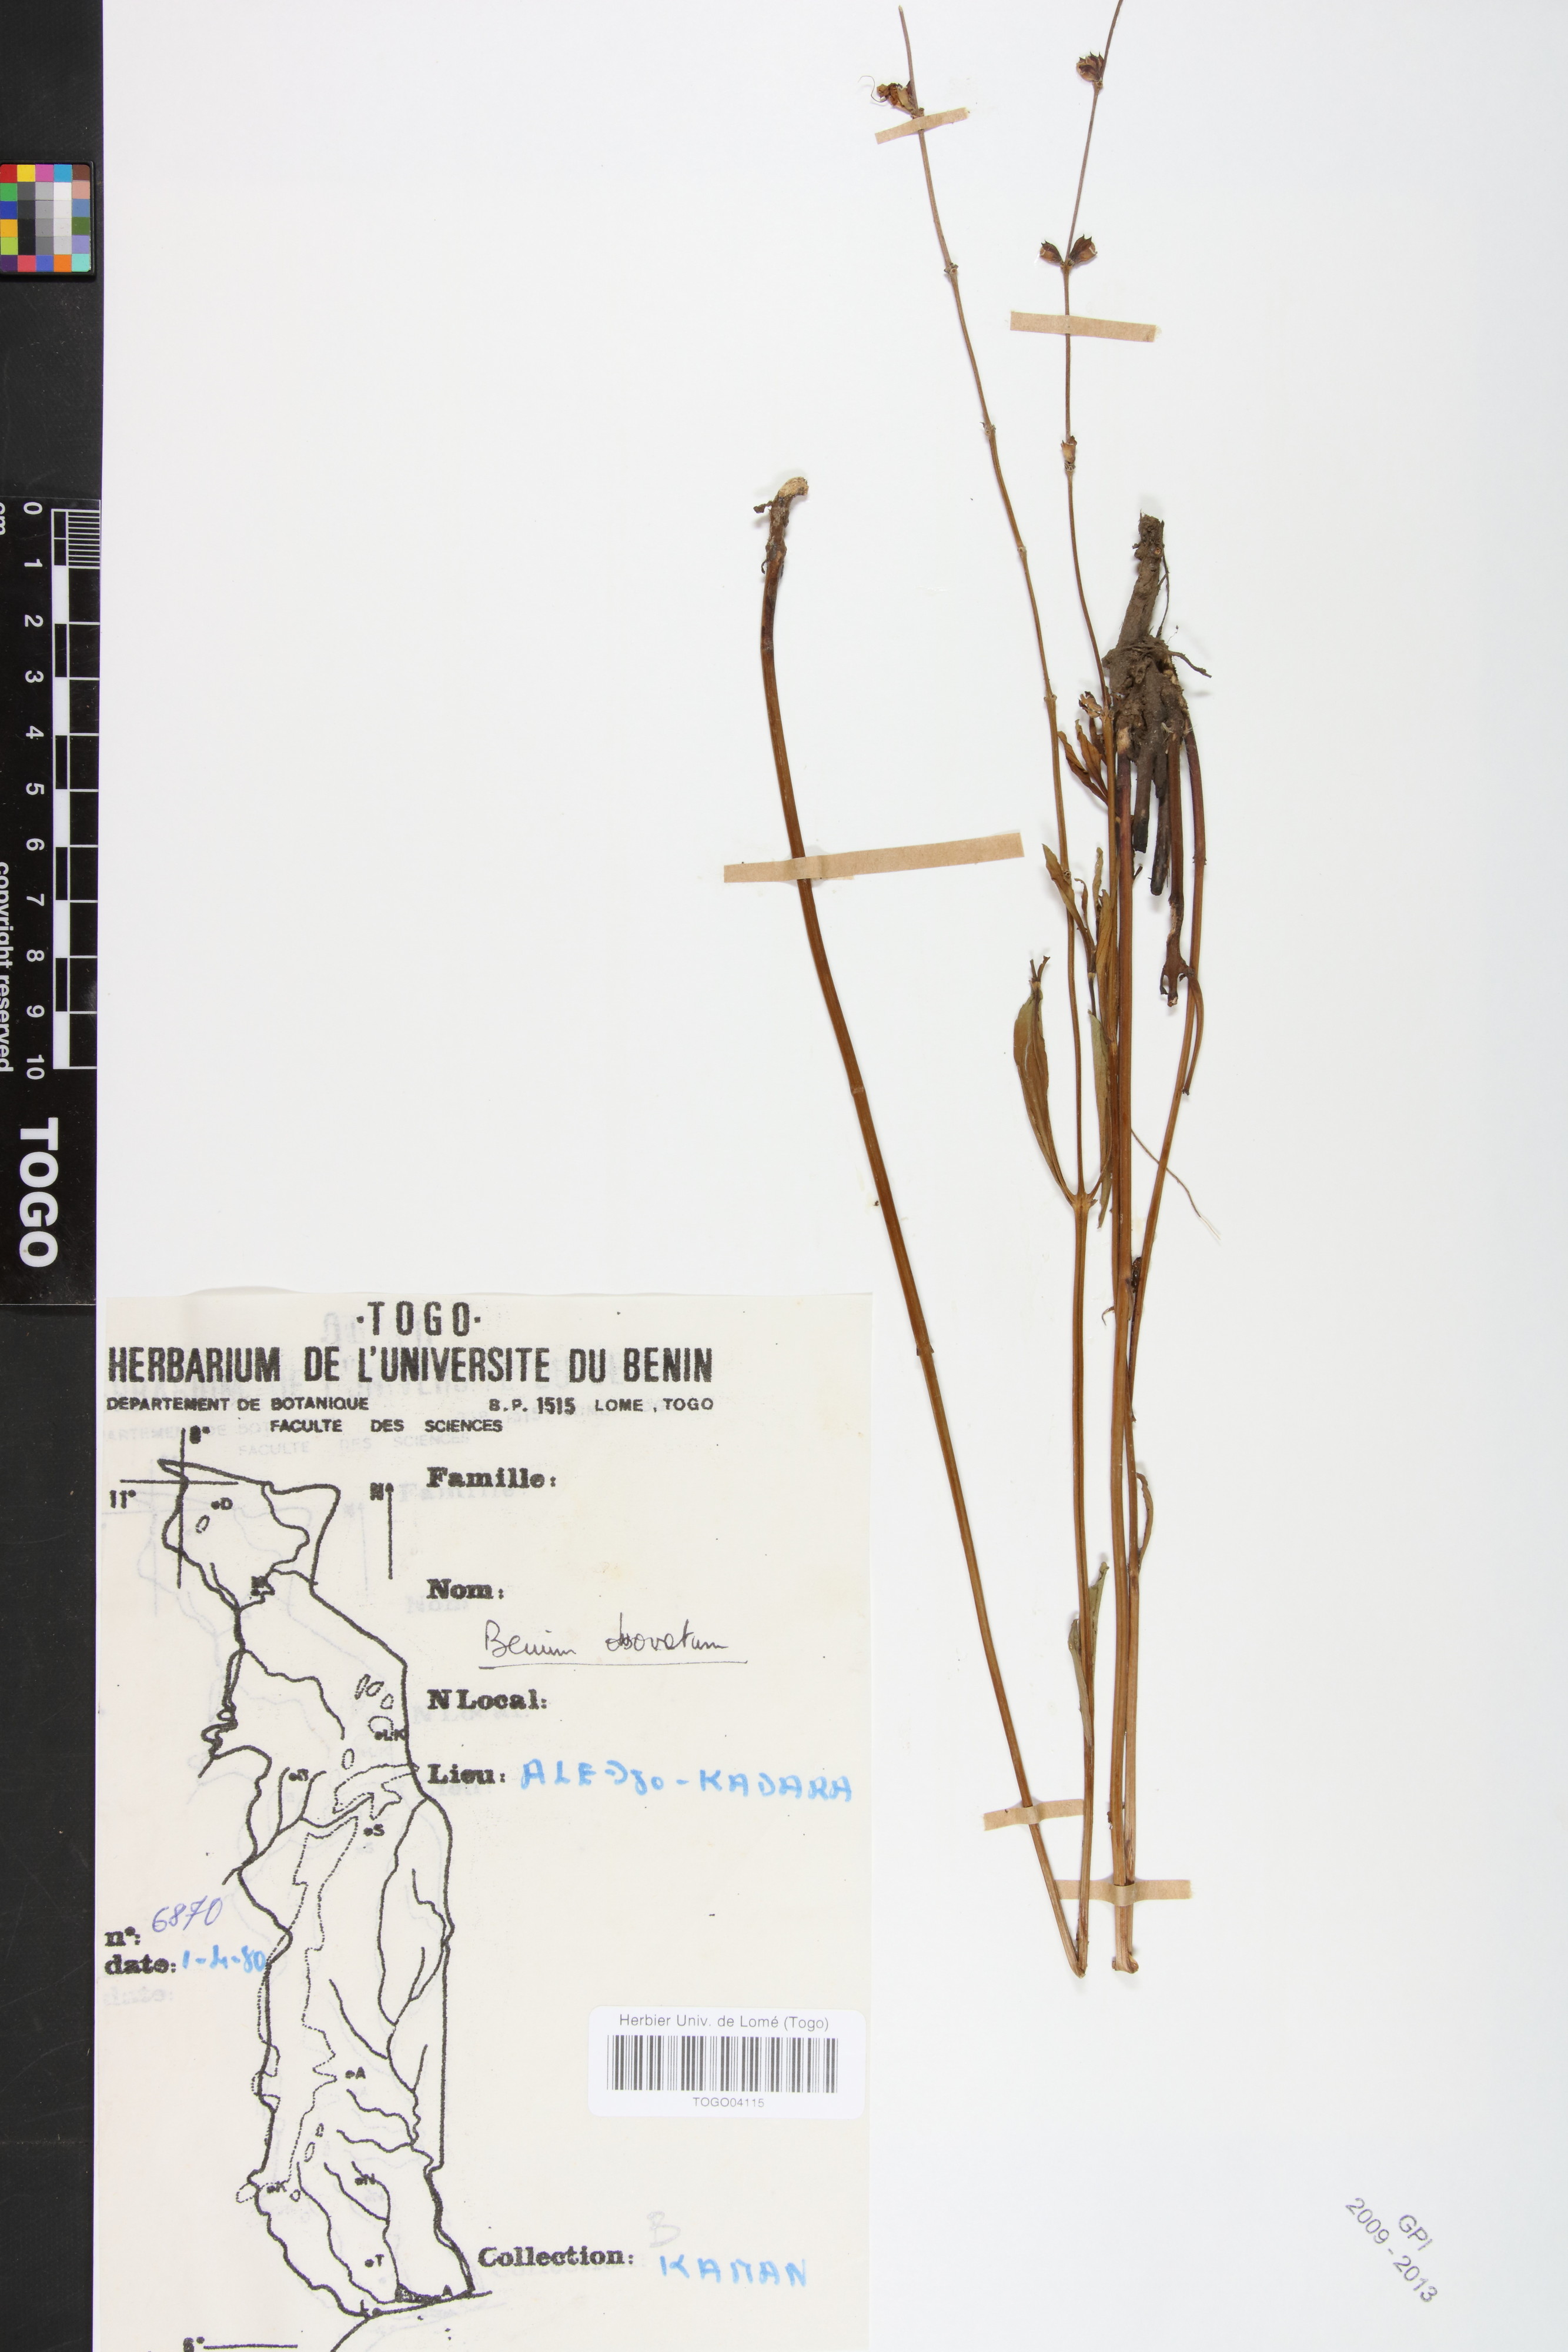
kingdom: Plantae
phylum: Tracheophyta
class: Magnoliopsida
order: Lamiales
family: Lamiaceae
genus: Ocimum
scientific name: Ocimum obovatum
